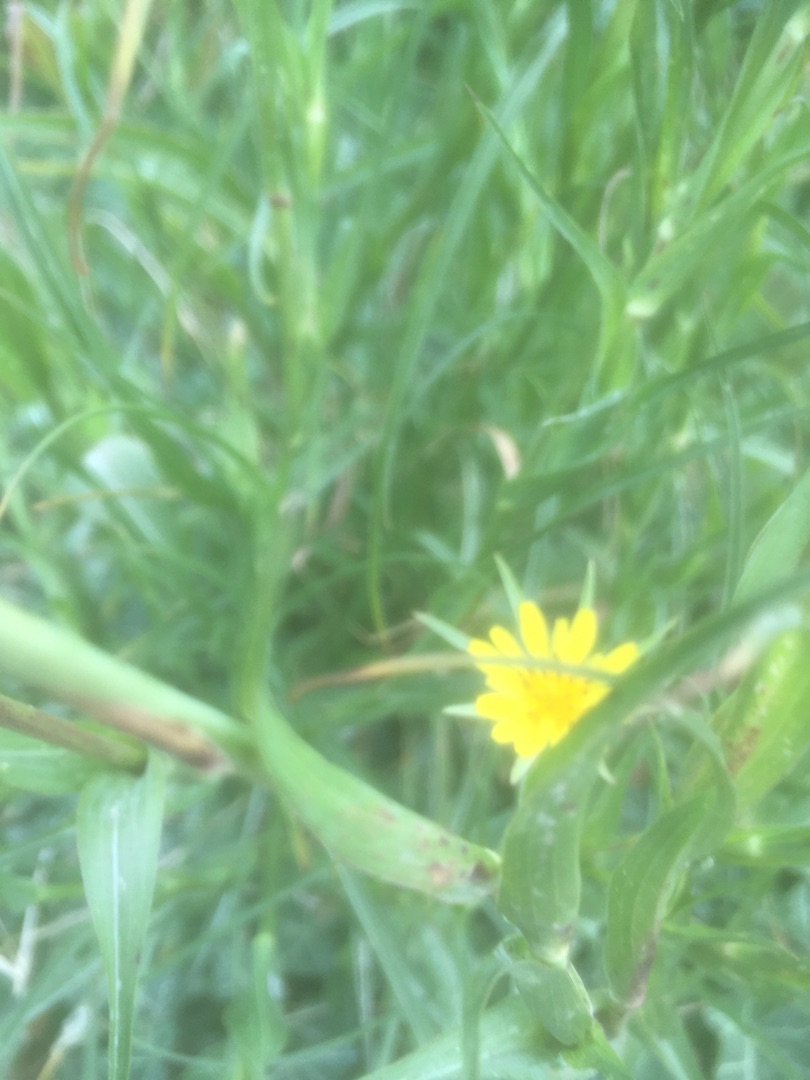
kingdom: Plantae
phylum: Tracheophyta
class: Magnoliopsida
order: Asterales
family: Asteraceae
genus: Tragopogon
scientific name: Tragopogon minor
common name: Småkronet gedeskæg
